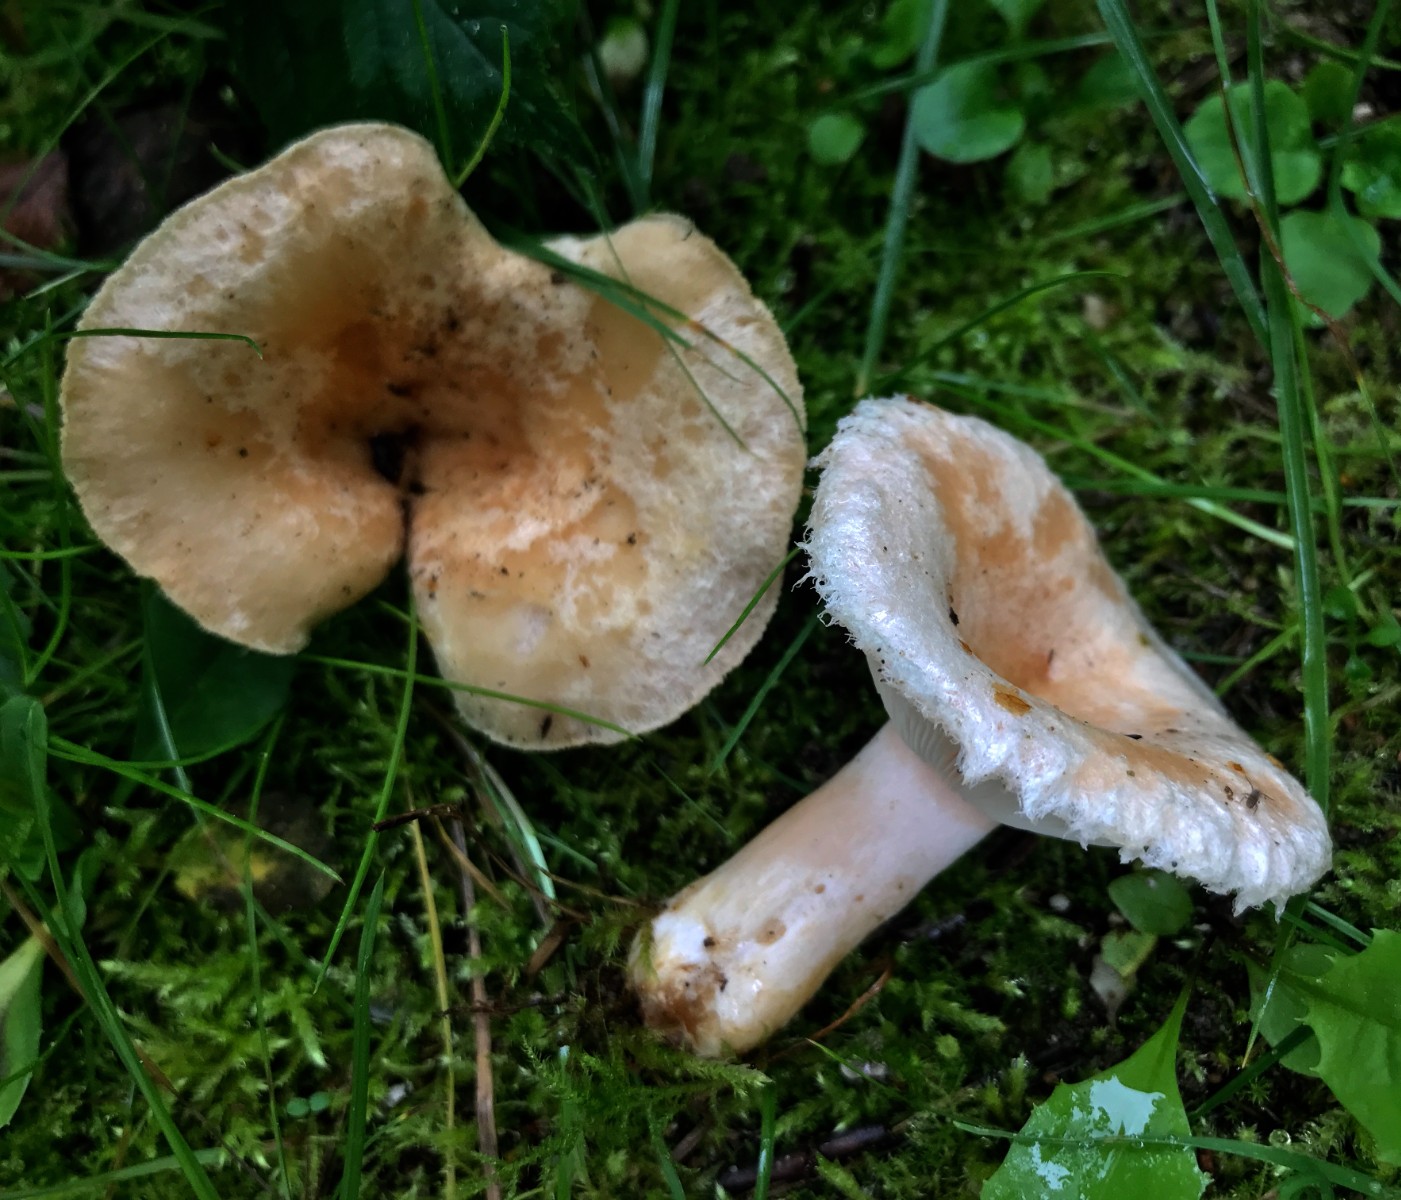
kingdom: Fungi
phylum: Basidiomycota
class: Agaricomycetes
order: Russulales
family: Russulaceae
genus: Lactarius
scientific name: Lactarius pubescens
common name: dunet mælkehat
